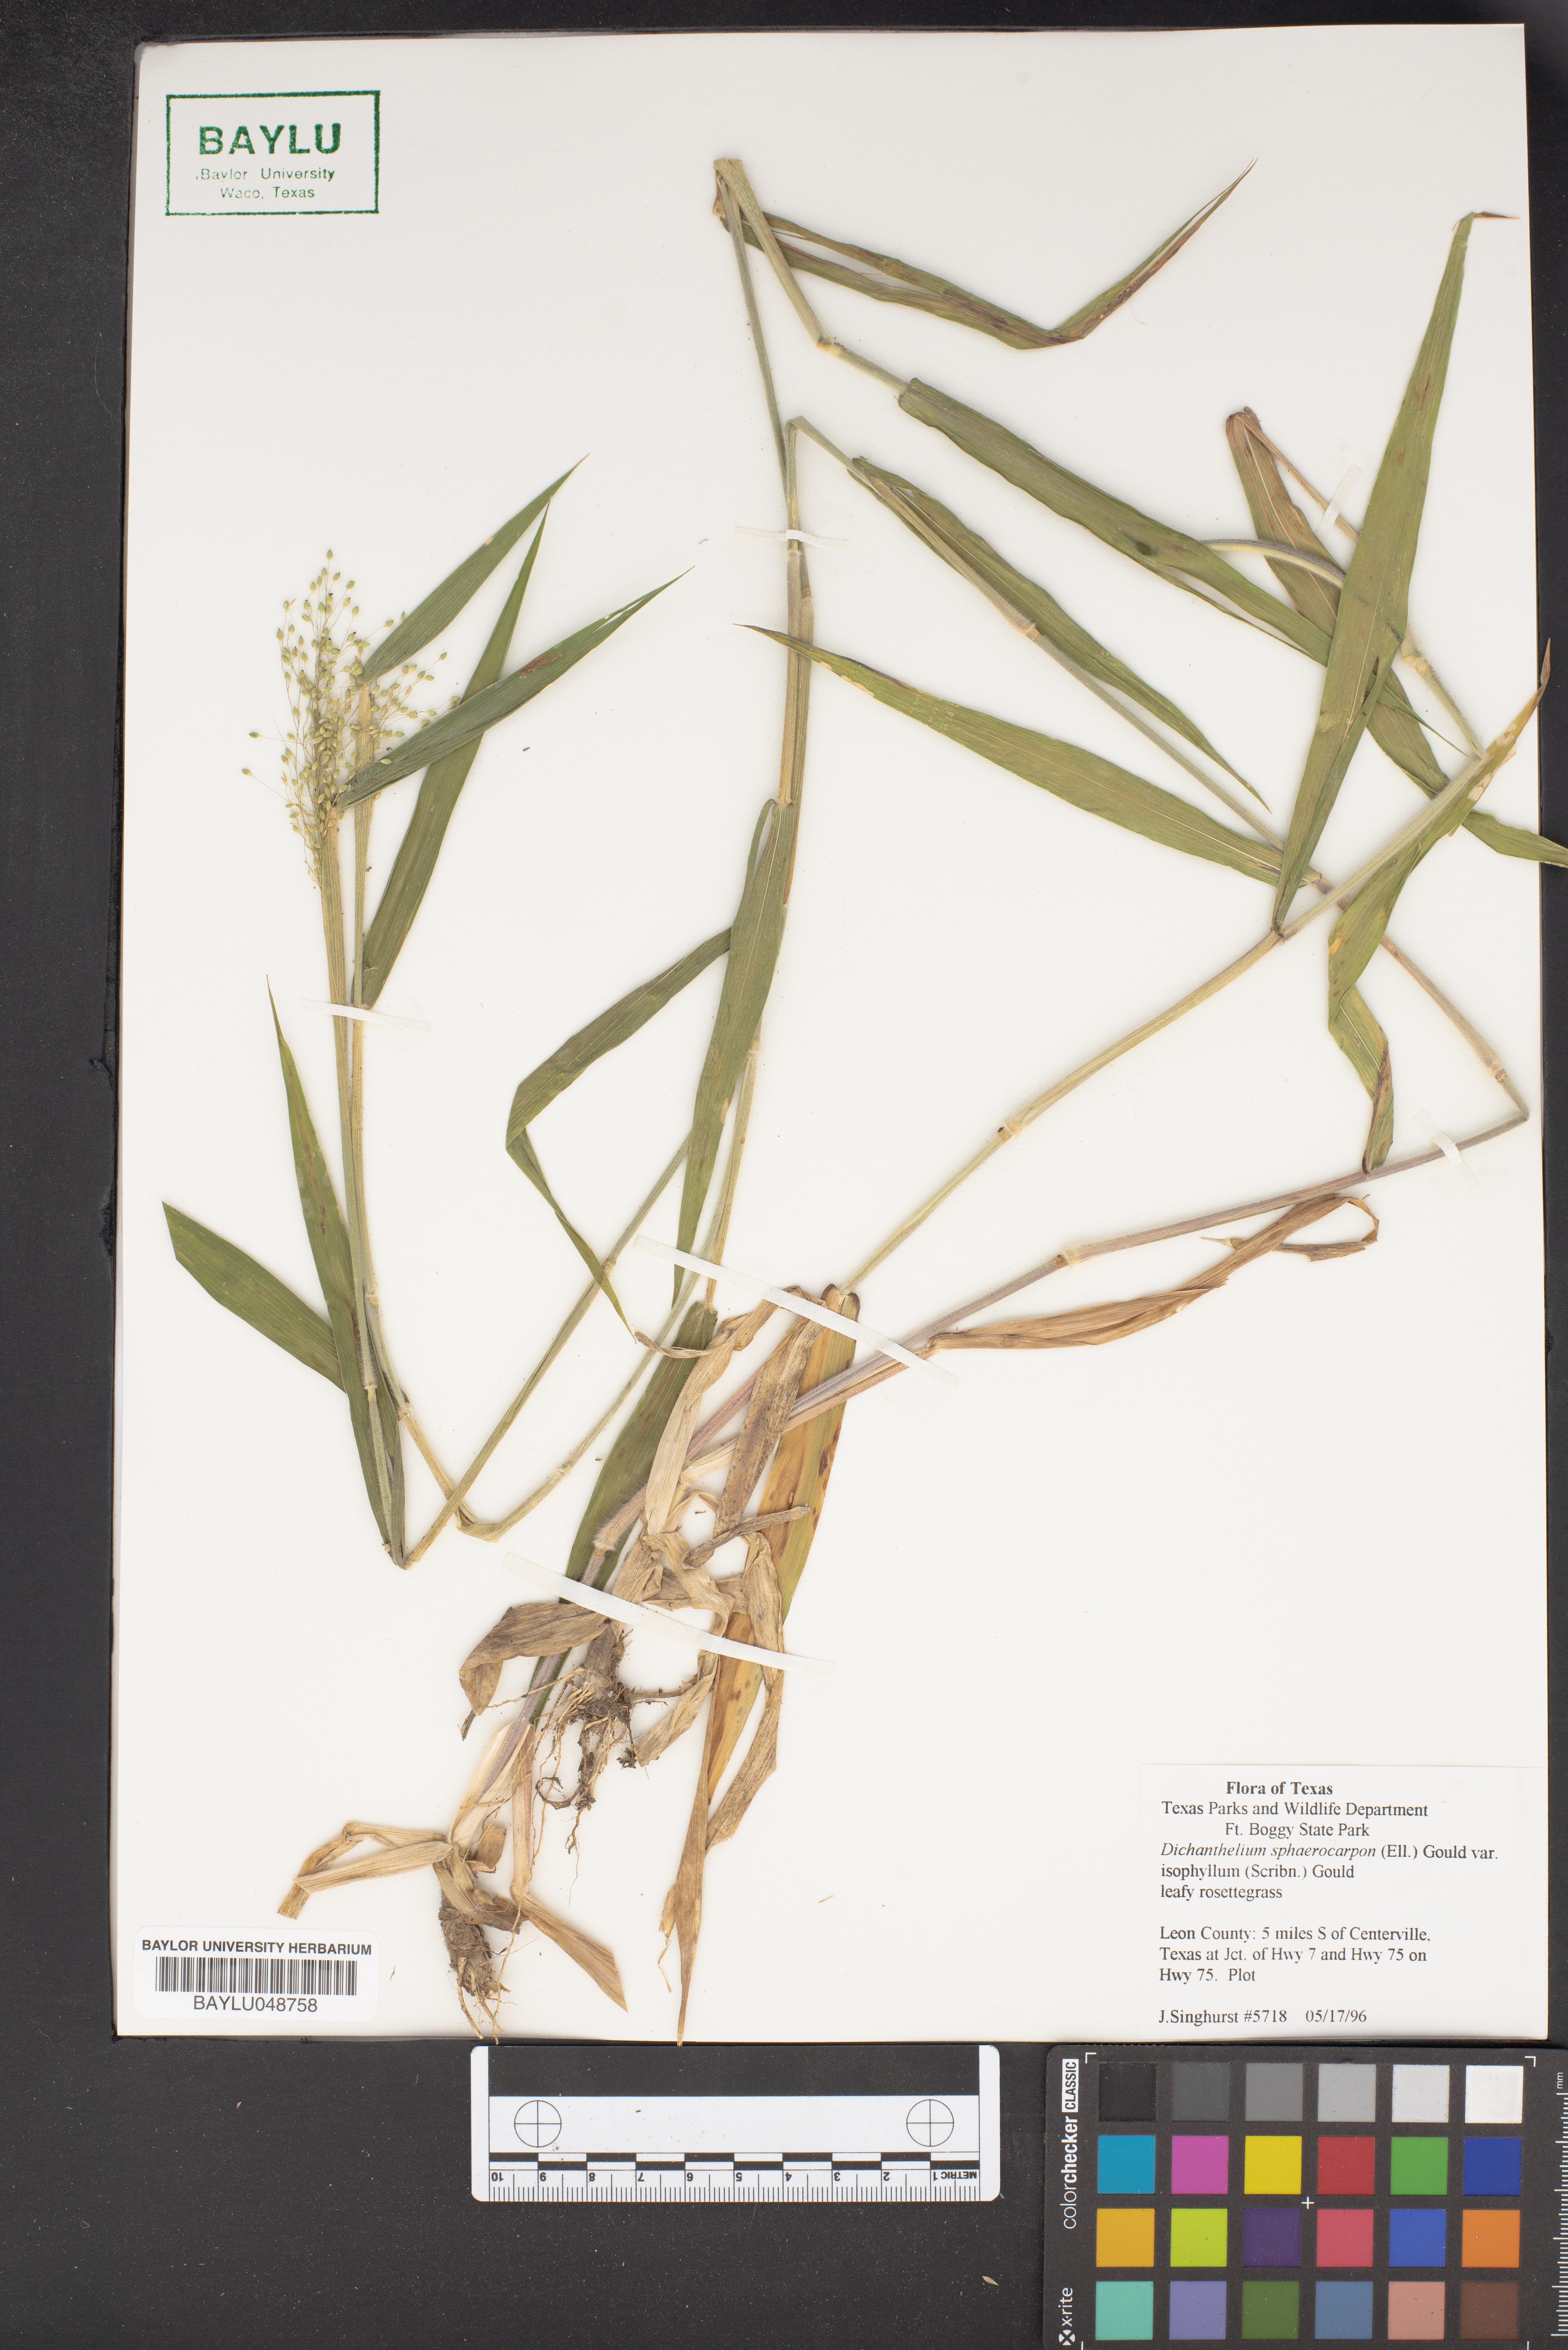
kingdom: Plantae
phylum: Tracheophyta
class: Liliopsida
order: Poales
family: Poaceae
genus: Dichanthelium
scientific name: Dichanthelium sphaerocarpon
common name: Round-fruited panicgrass
